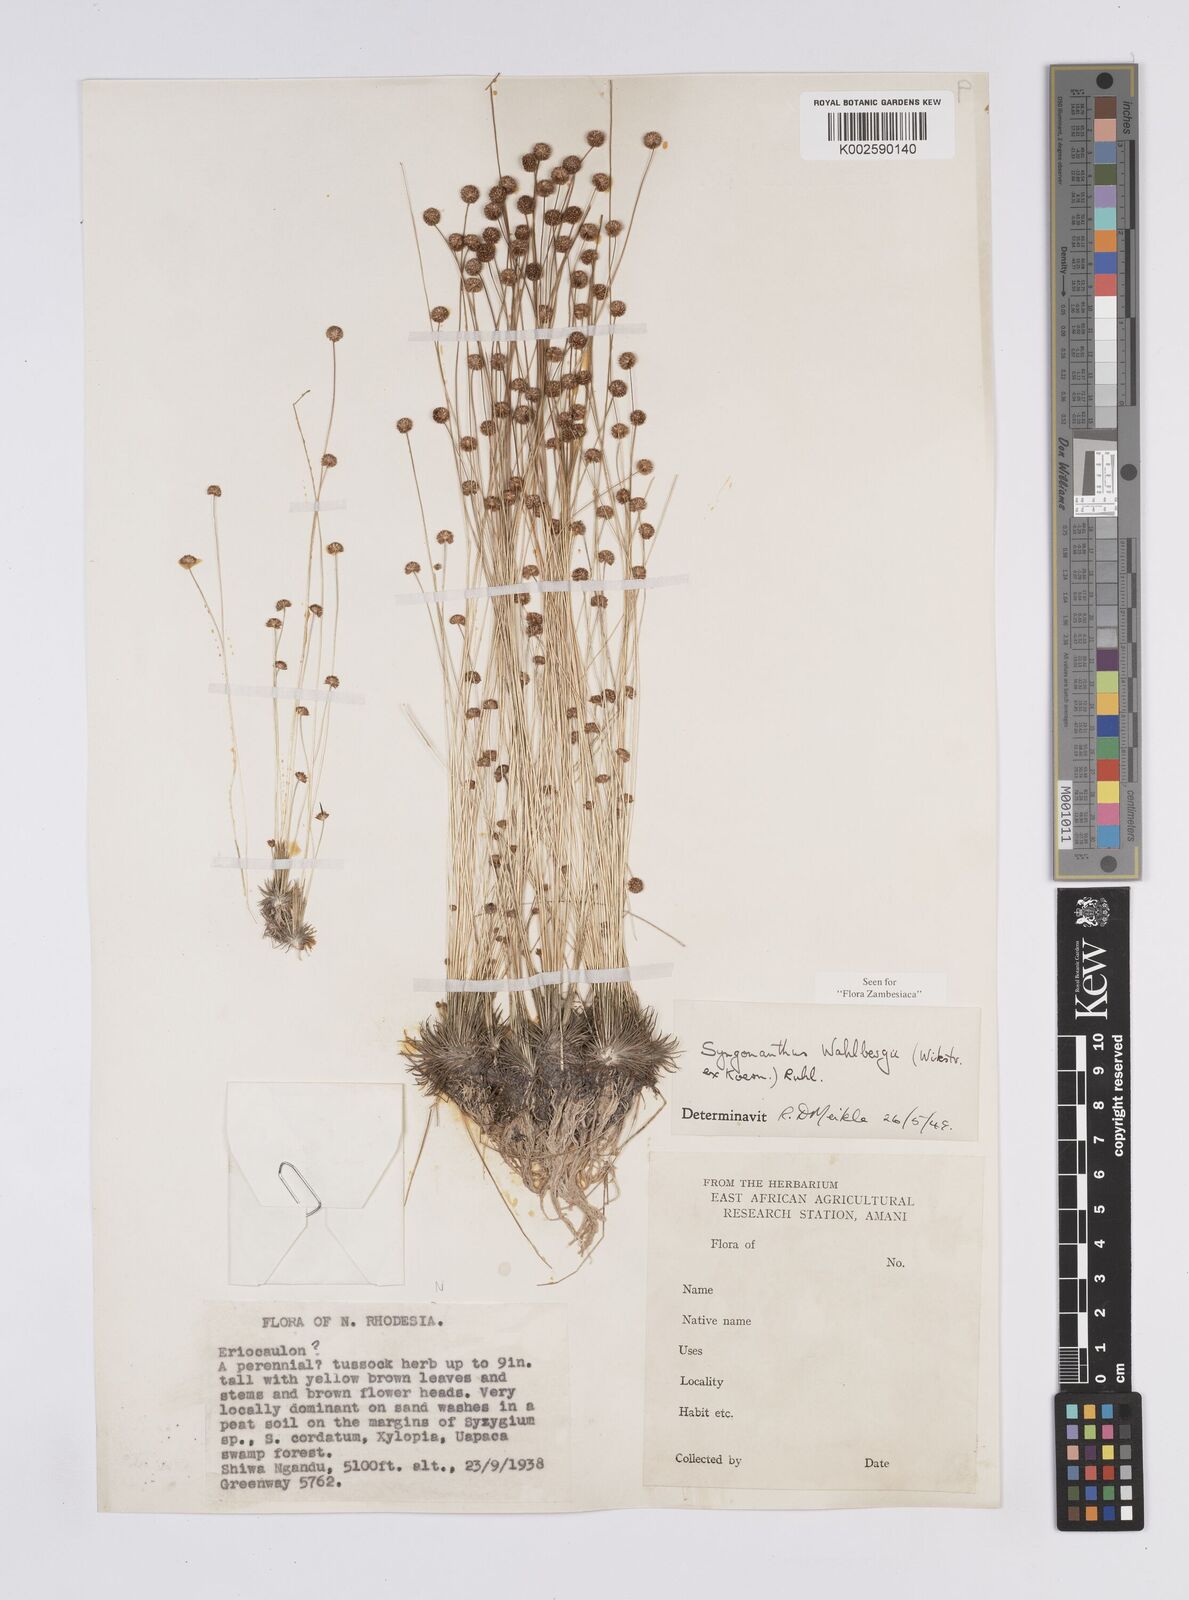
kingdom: Plantae
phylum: Tracheophyta
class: Liliopsida
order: Poales
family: Eriocaulaceae
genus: Syngonanthus
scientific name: Syngonanthus wahlbergii
